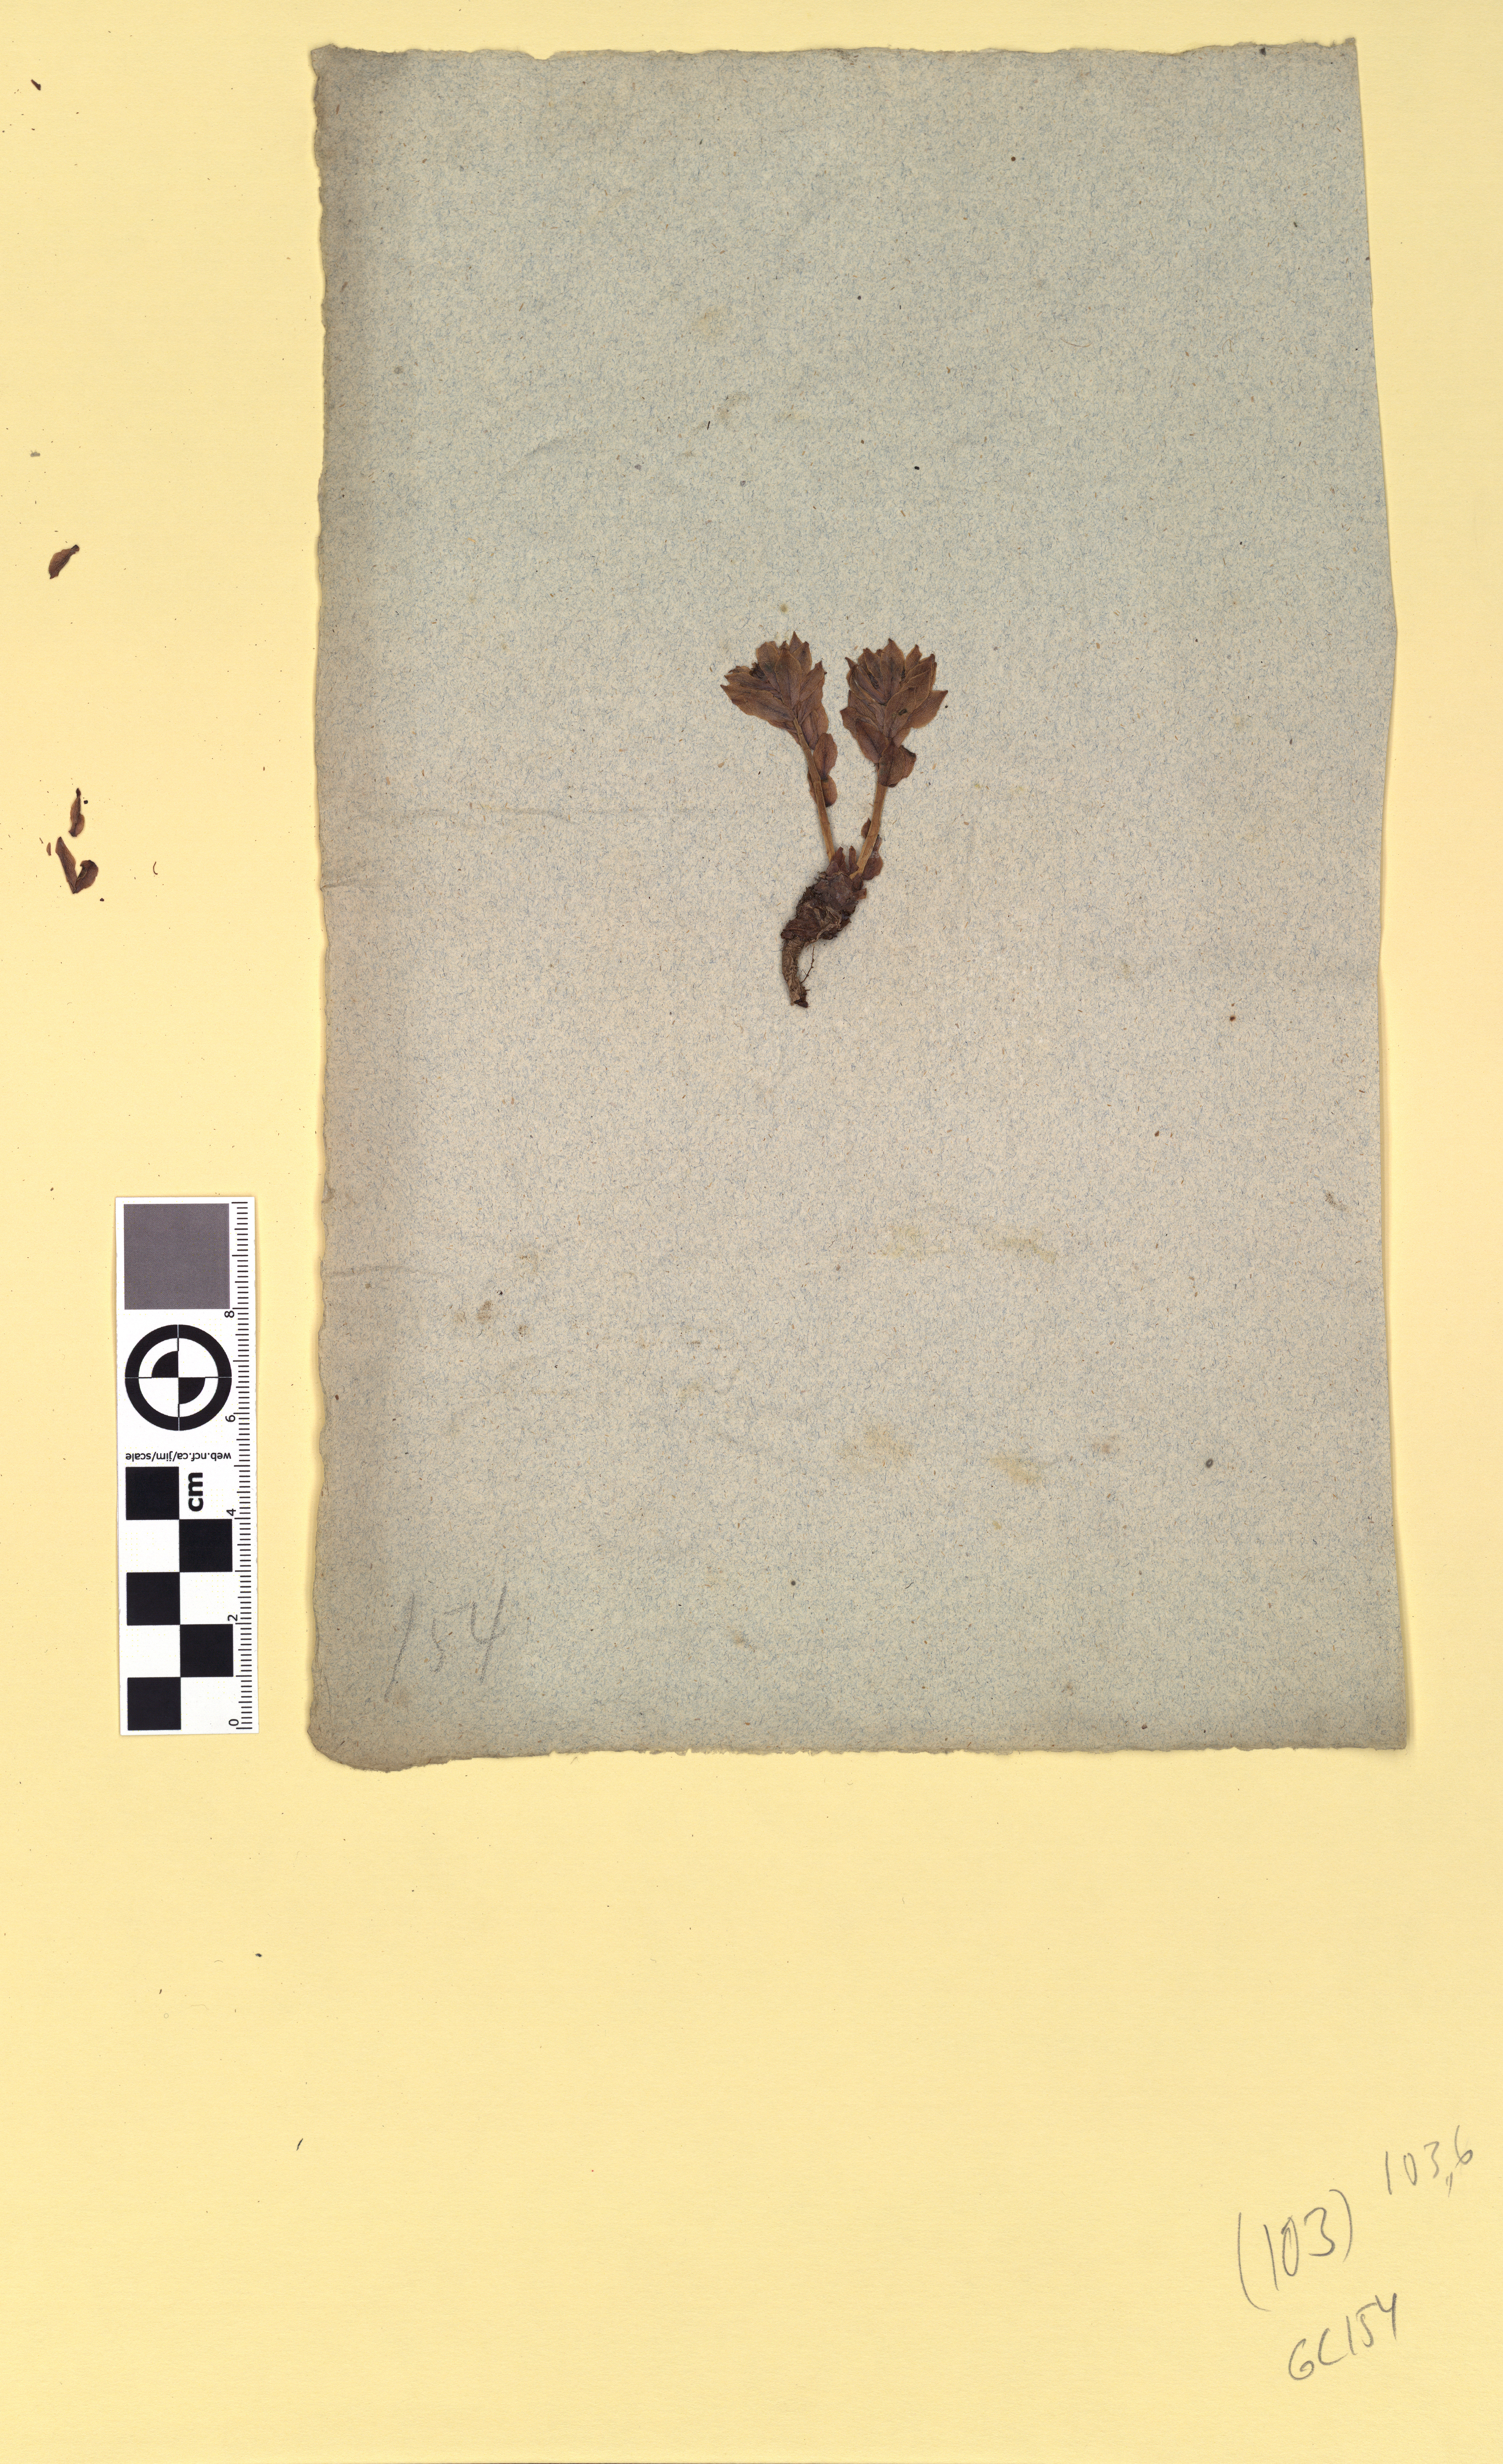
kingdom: Plantae
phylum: Tracheophyta
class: Magnoliopsida
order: Saxifragales
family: Crassulaceae
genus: Rhodiola
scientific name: Rhodiola rosea
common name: Roseroot
